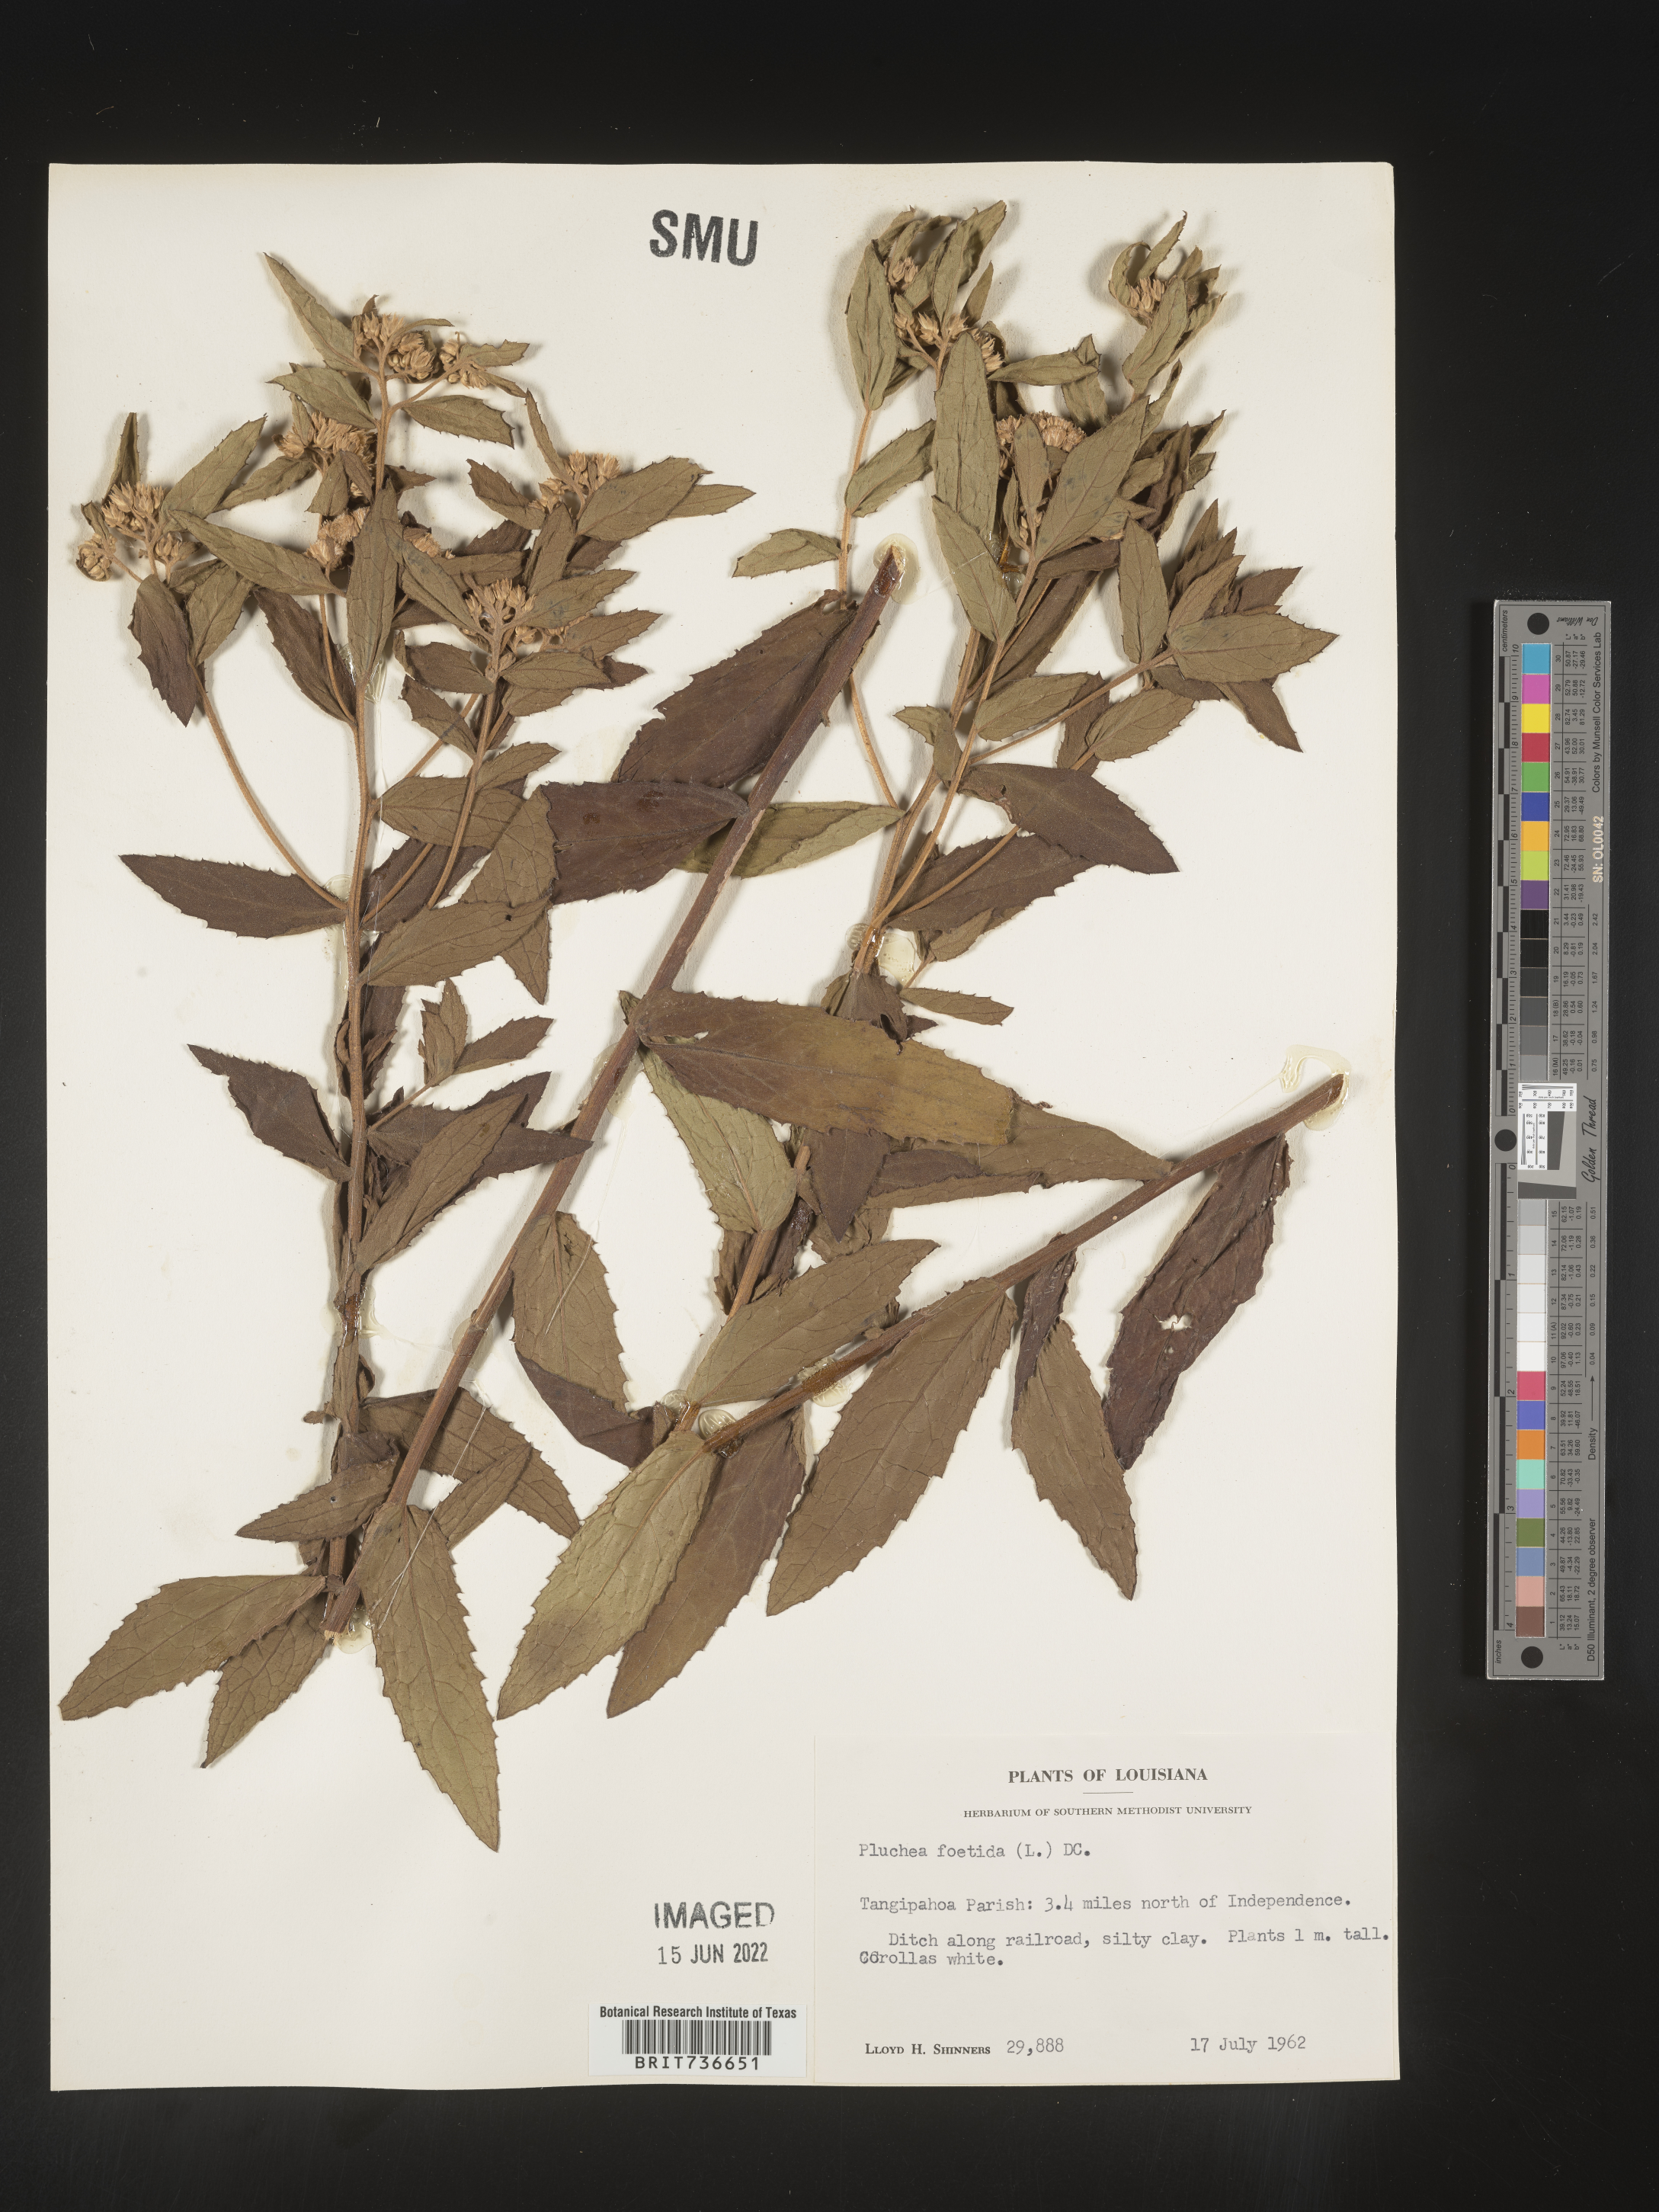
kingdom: Plantae
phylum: Tracheophyta
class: Magnoliopsida
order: Asterales
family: Asteraceae
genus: Pluchea
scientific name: Pluchea foetida
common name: Stinking camphorweed
